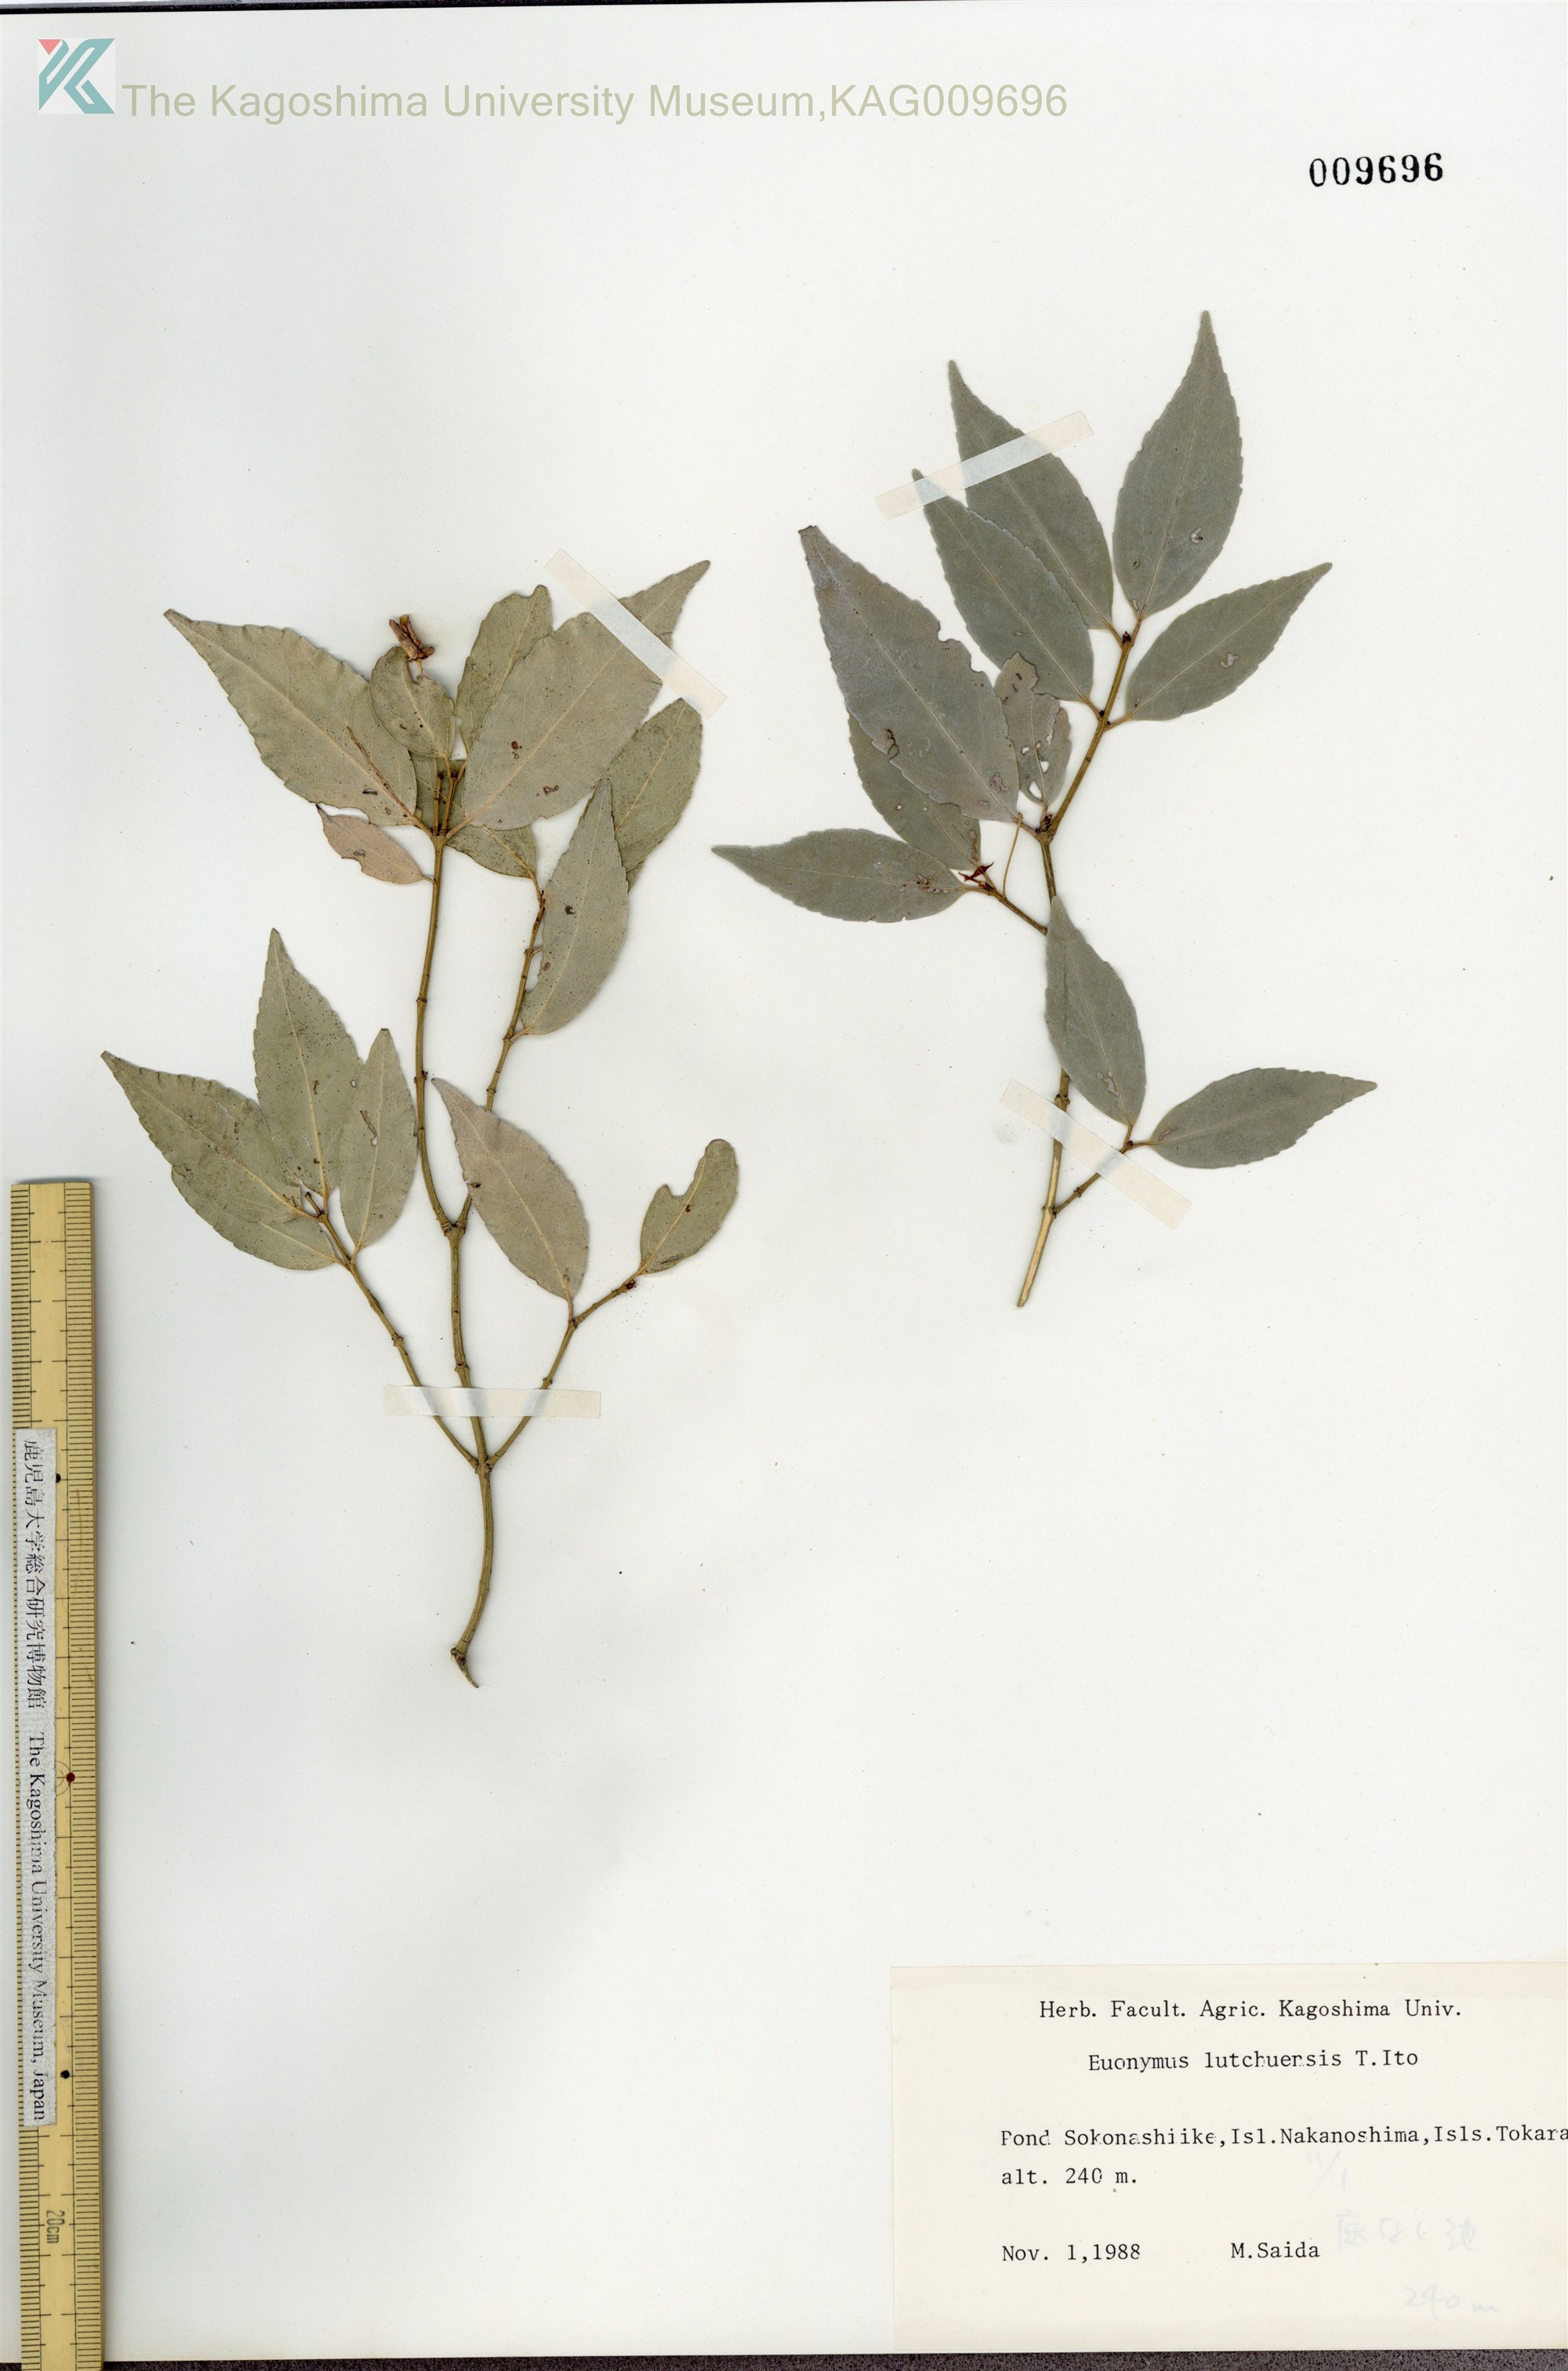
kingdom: Plantae
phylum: Tracheophyta
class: Magnoliopsida
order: Celastrales
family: Celastraceae
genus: Euonymus
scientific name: Euonymus lutchuensis
